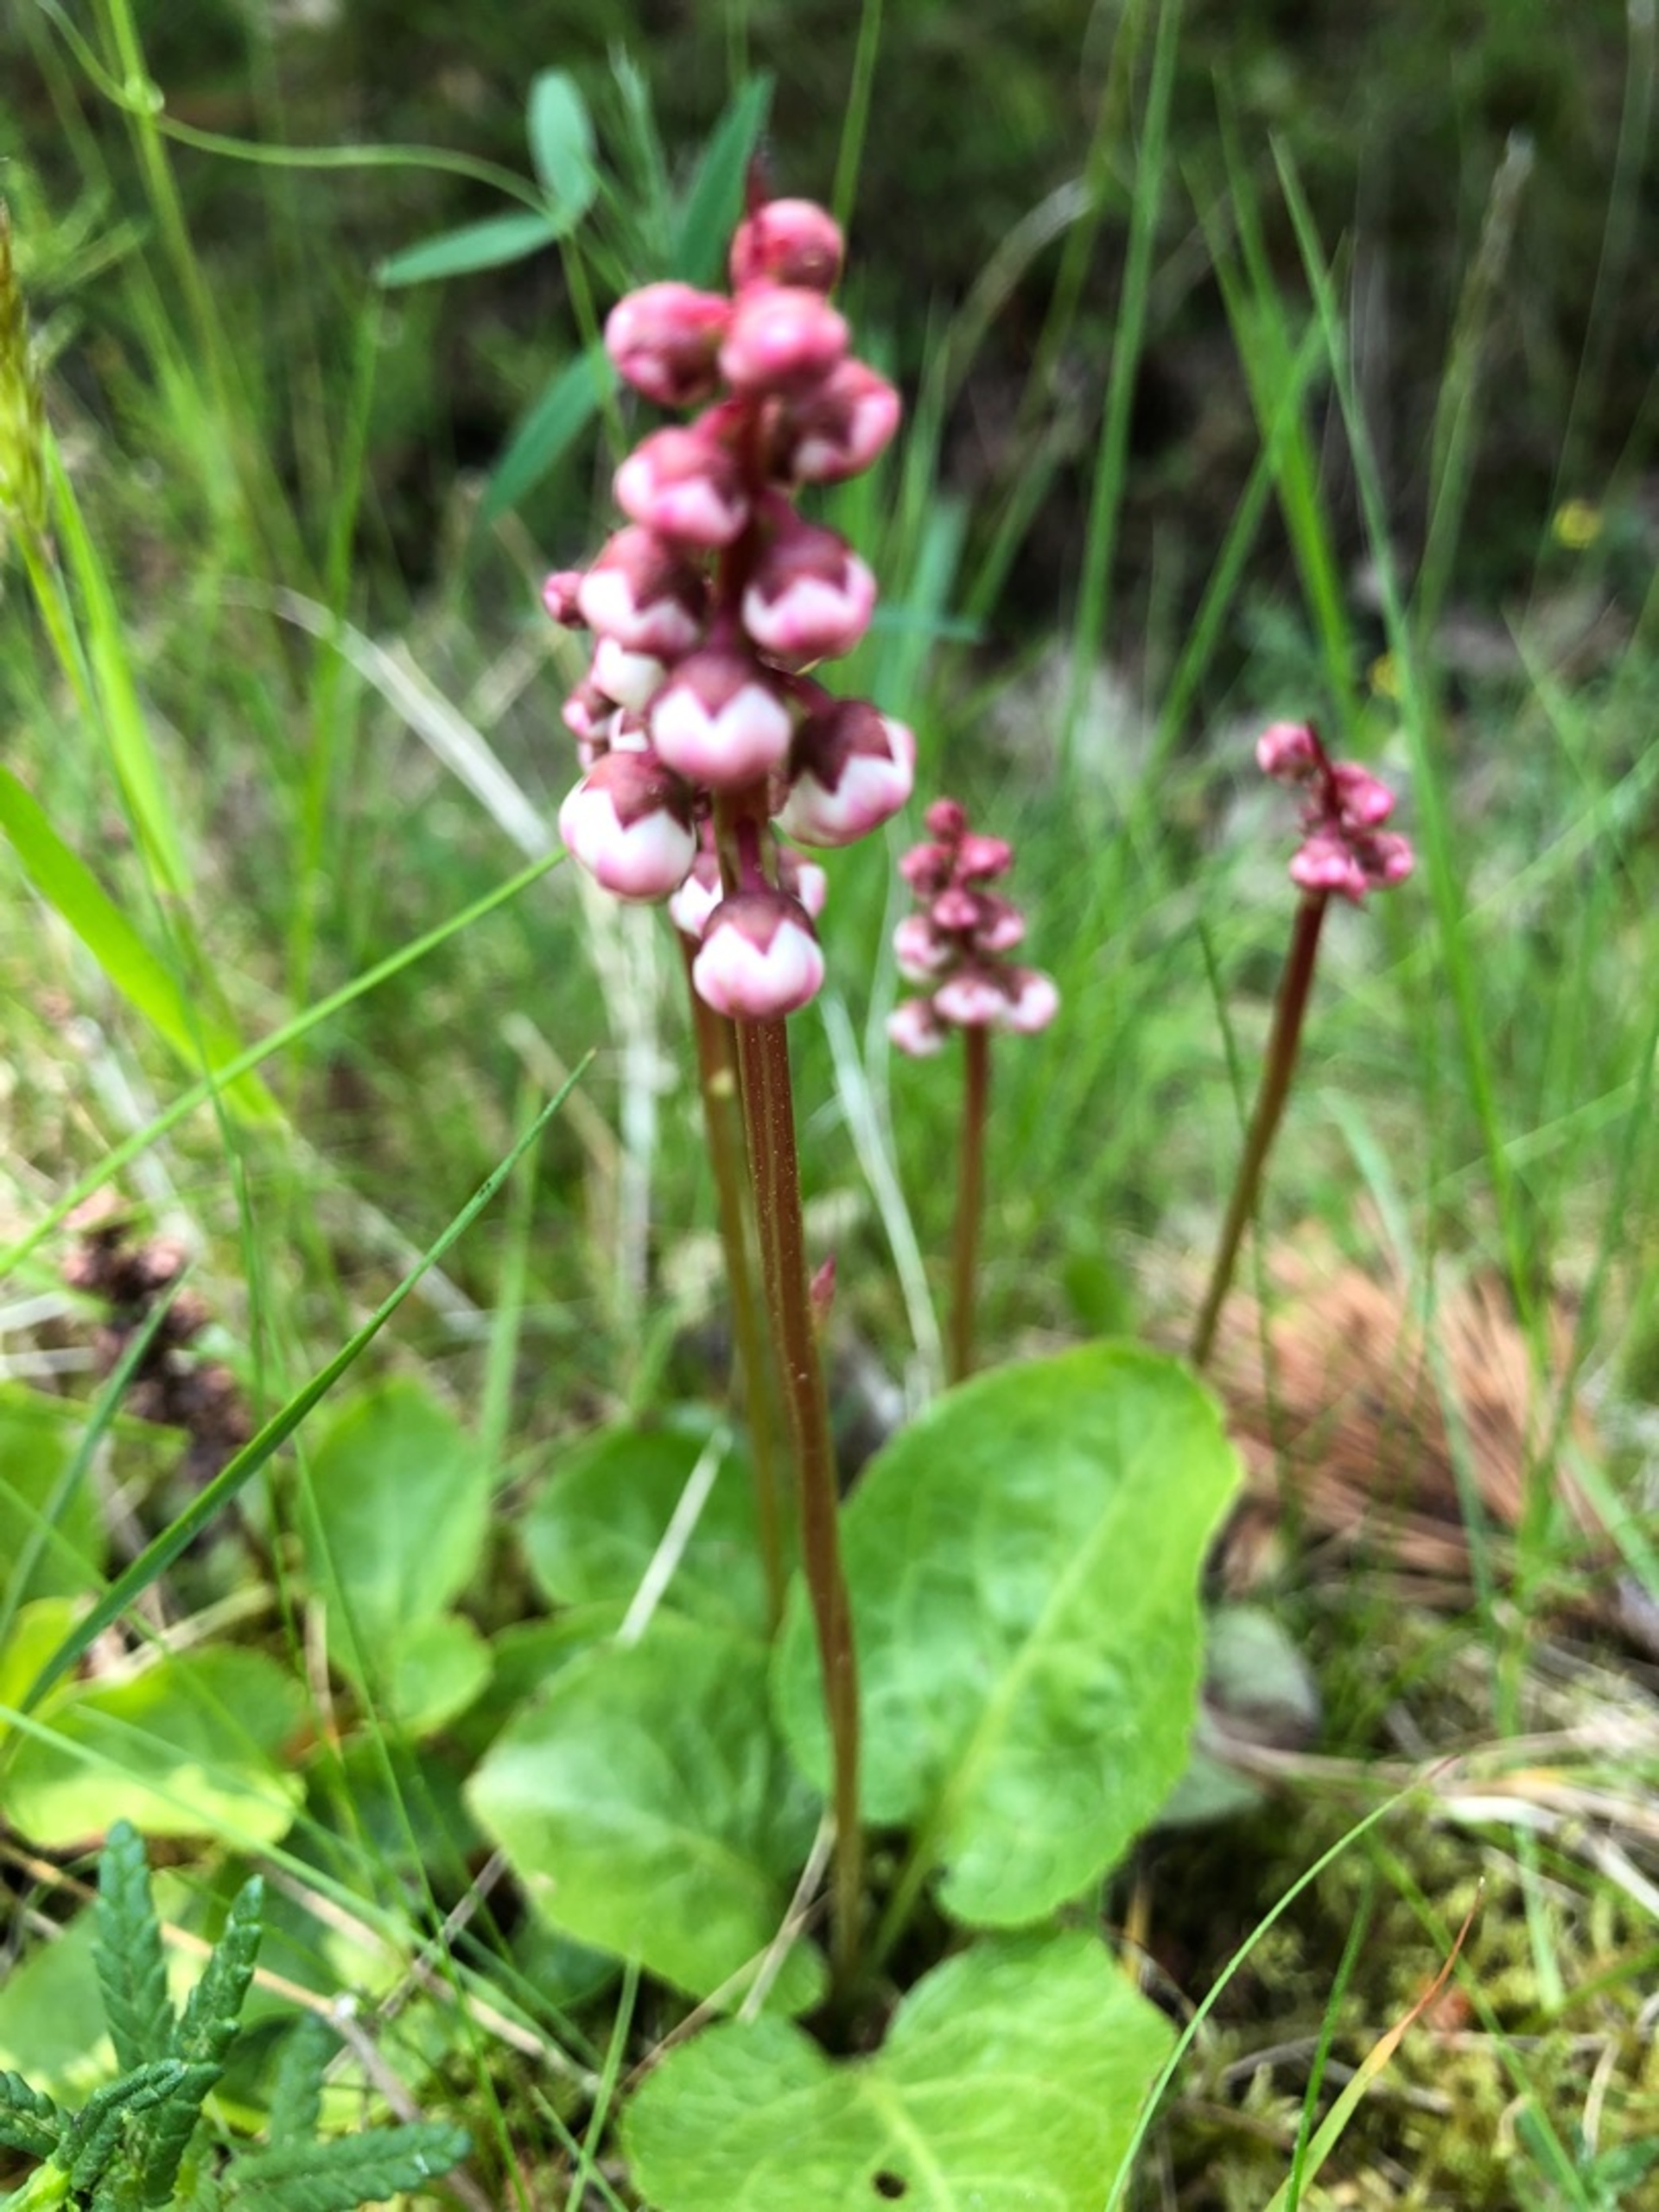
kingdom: Plantae
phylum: Tracheophyta
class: Magnoliopsida
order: Ericales
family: Ericaceae
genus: Pyrola
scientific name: Pyrola minor
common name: Liden vintergrøn
